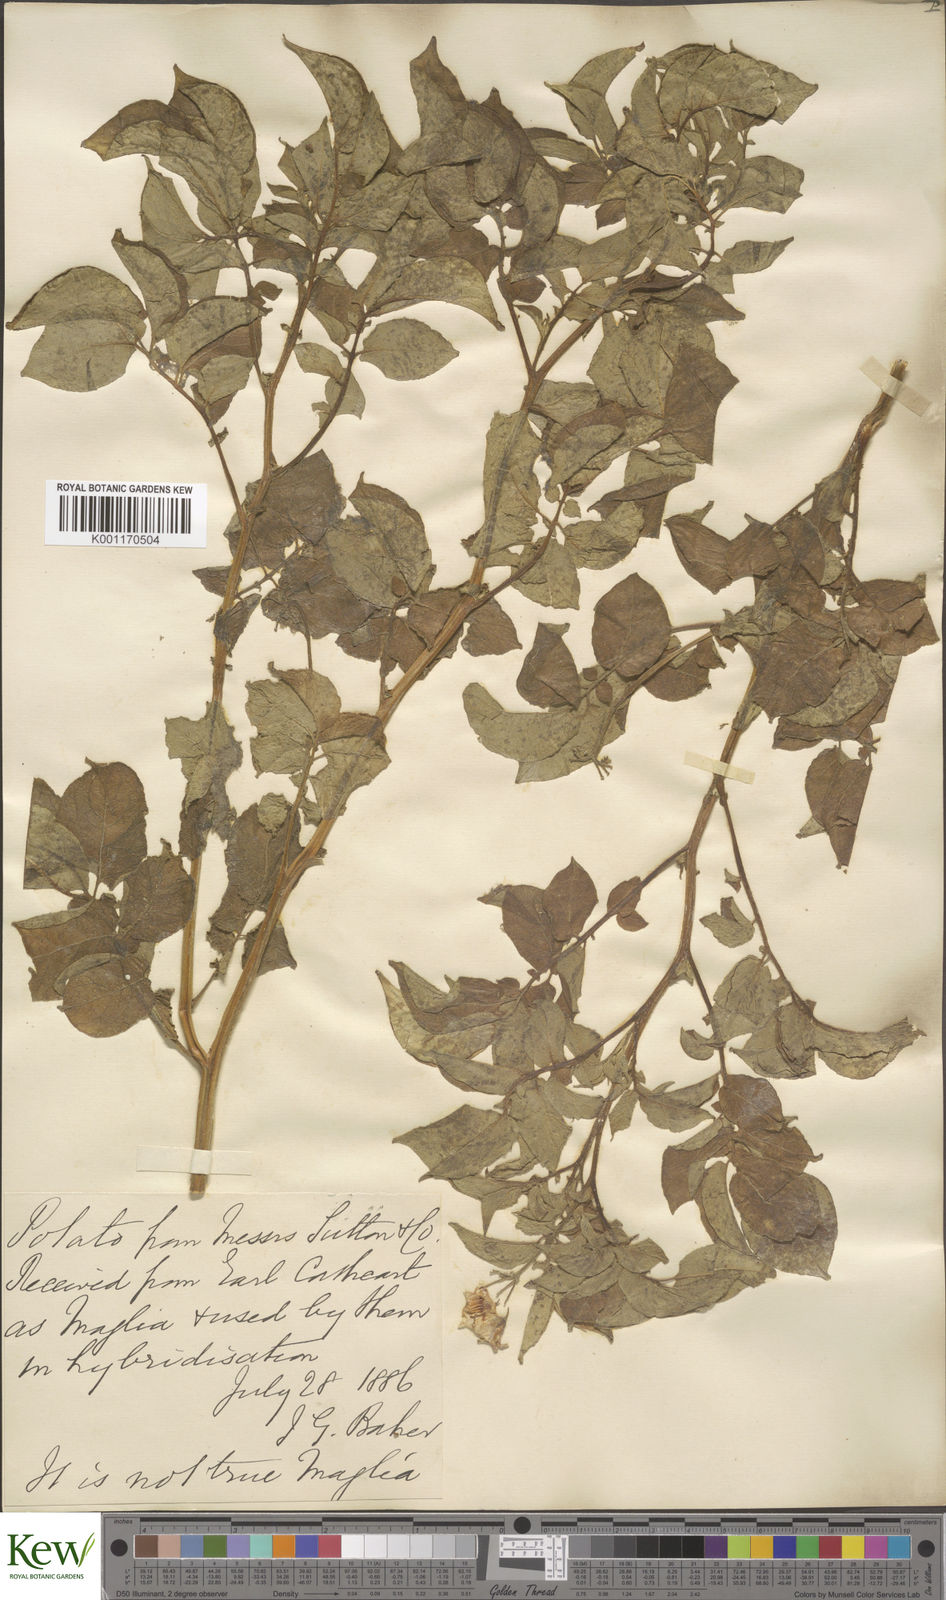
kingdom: Plantae
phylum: Tracheophyta
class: Magnoliopsida
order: Solanales
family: Solanaceae
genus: Solanum
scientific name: Solanum tuberosum
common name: Potato
